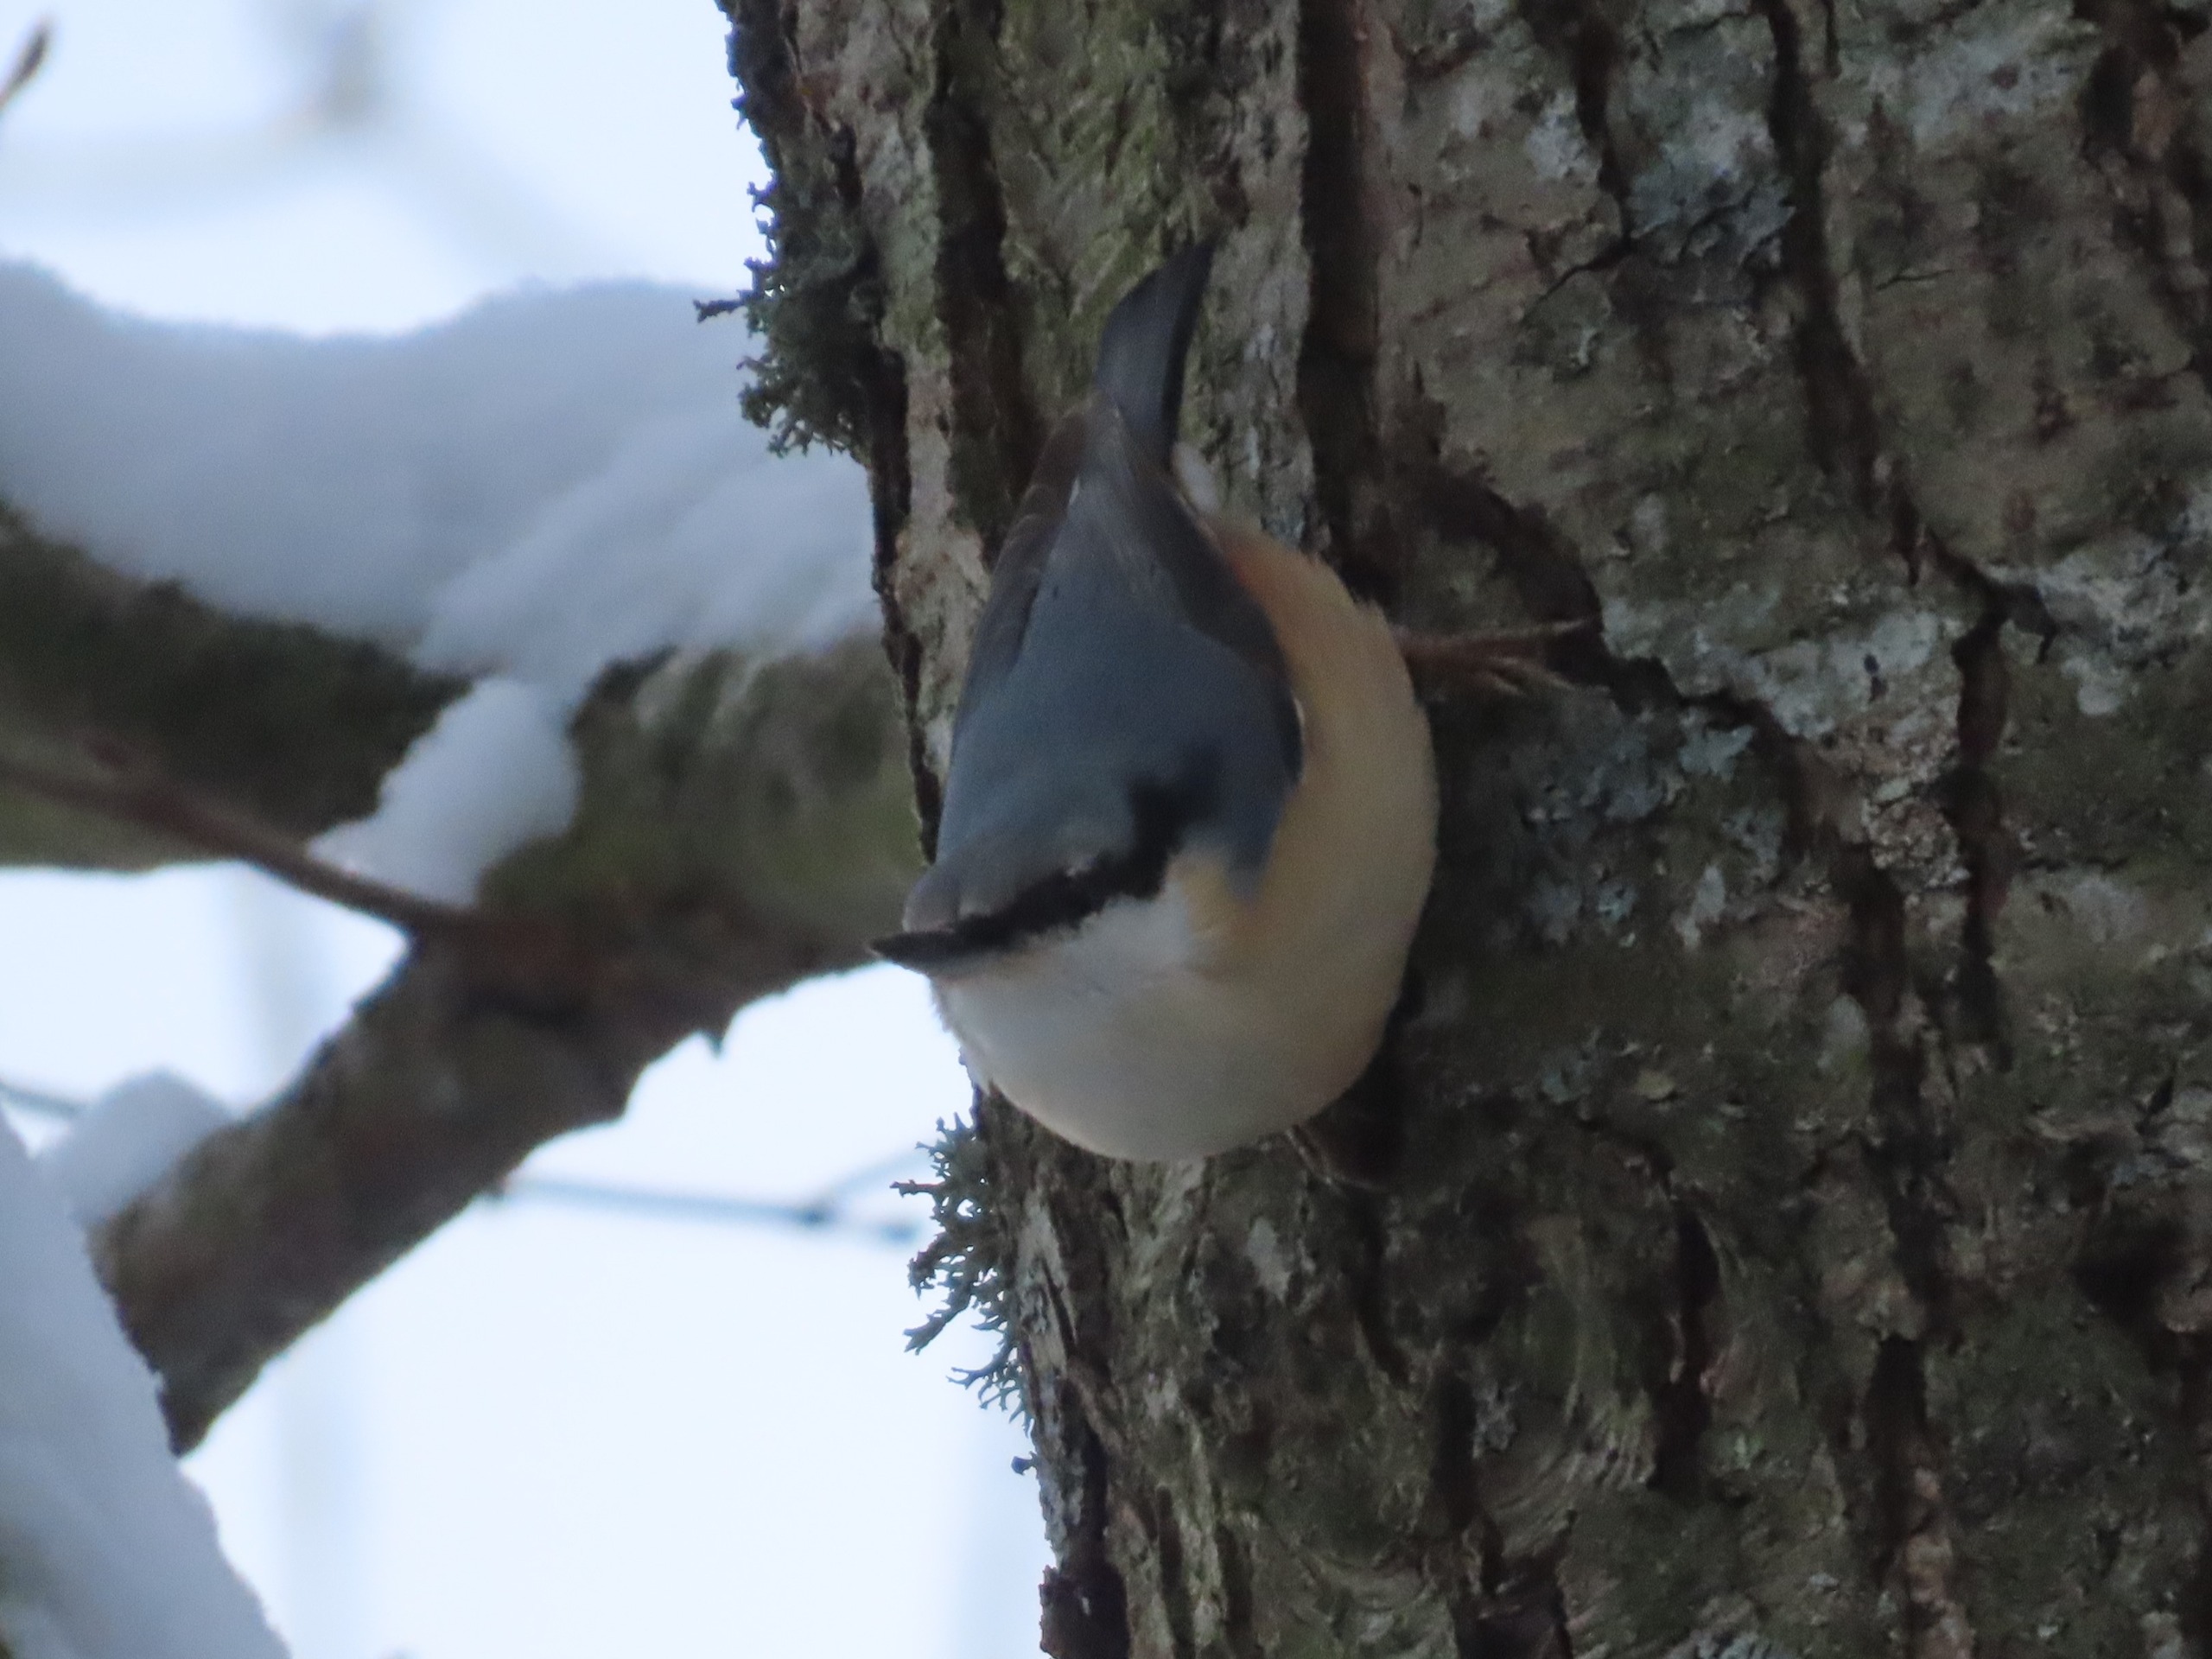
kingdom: Animalia
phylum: Chordata
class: Aves
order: Passeriformes
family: Sittidae
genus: Sitta
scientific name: Sitta europaea
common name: Spætmejse
